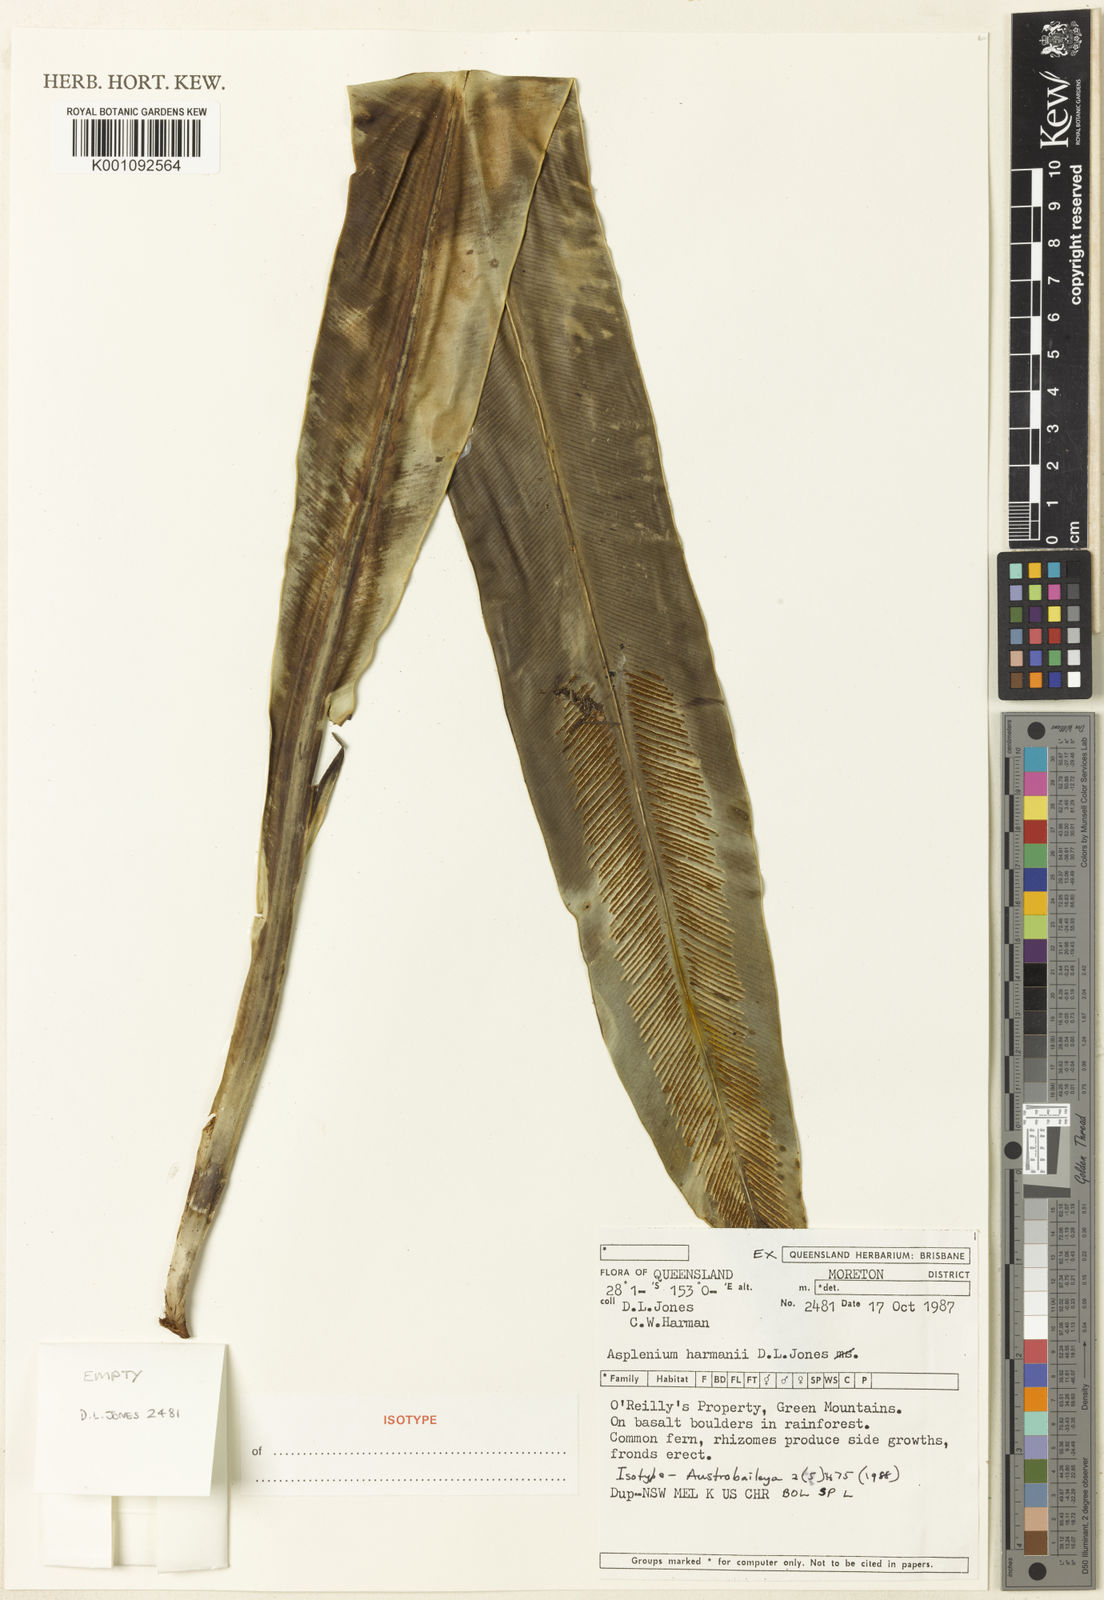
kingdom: Plantae
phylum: Tracheophyta
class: Polypodiopsida
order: Polypodiales
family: Aspleniaceae
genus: Asplenium
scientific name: Asplenium harmanii
